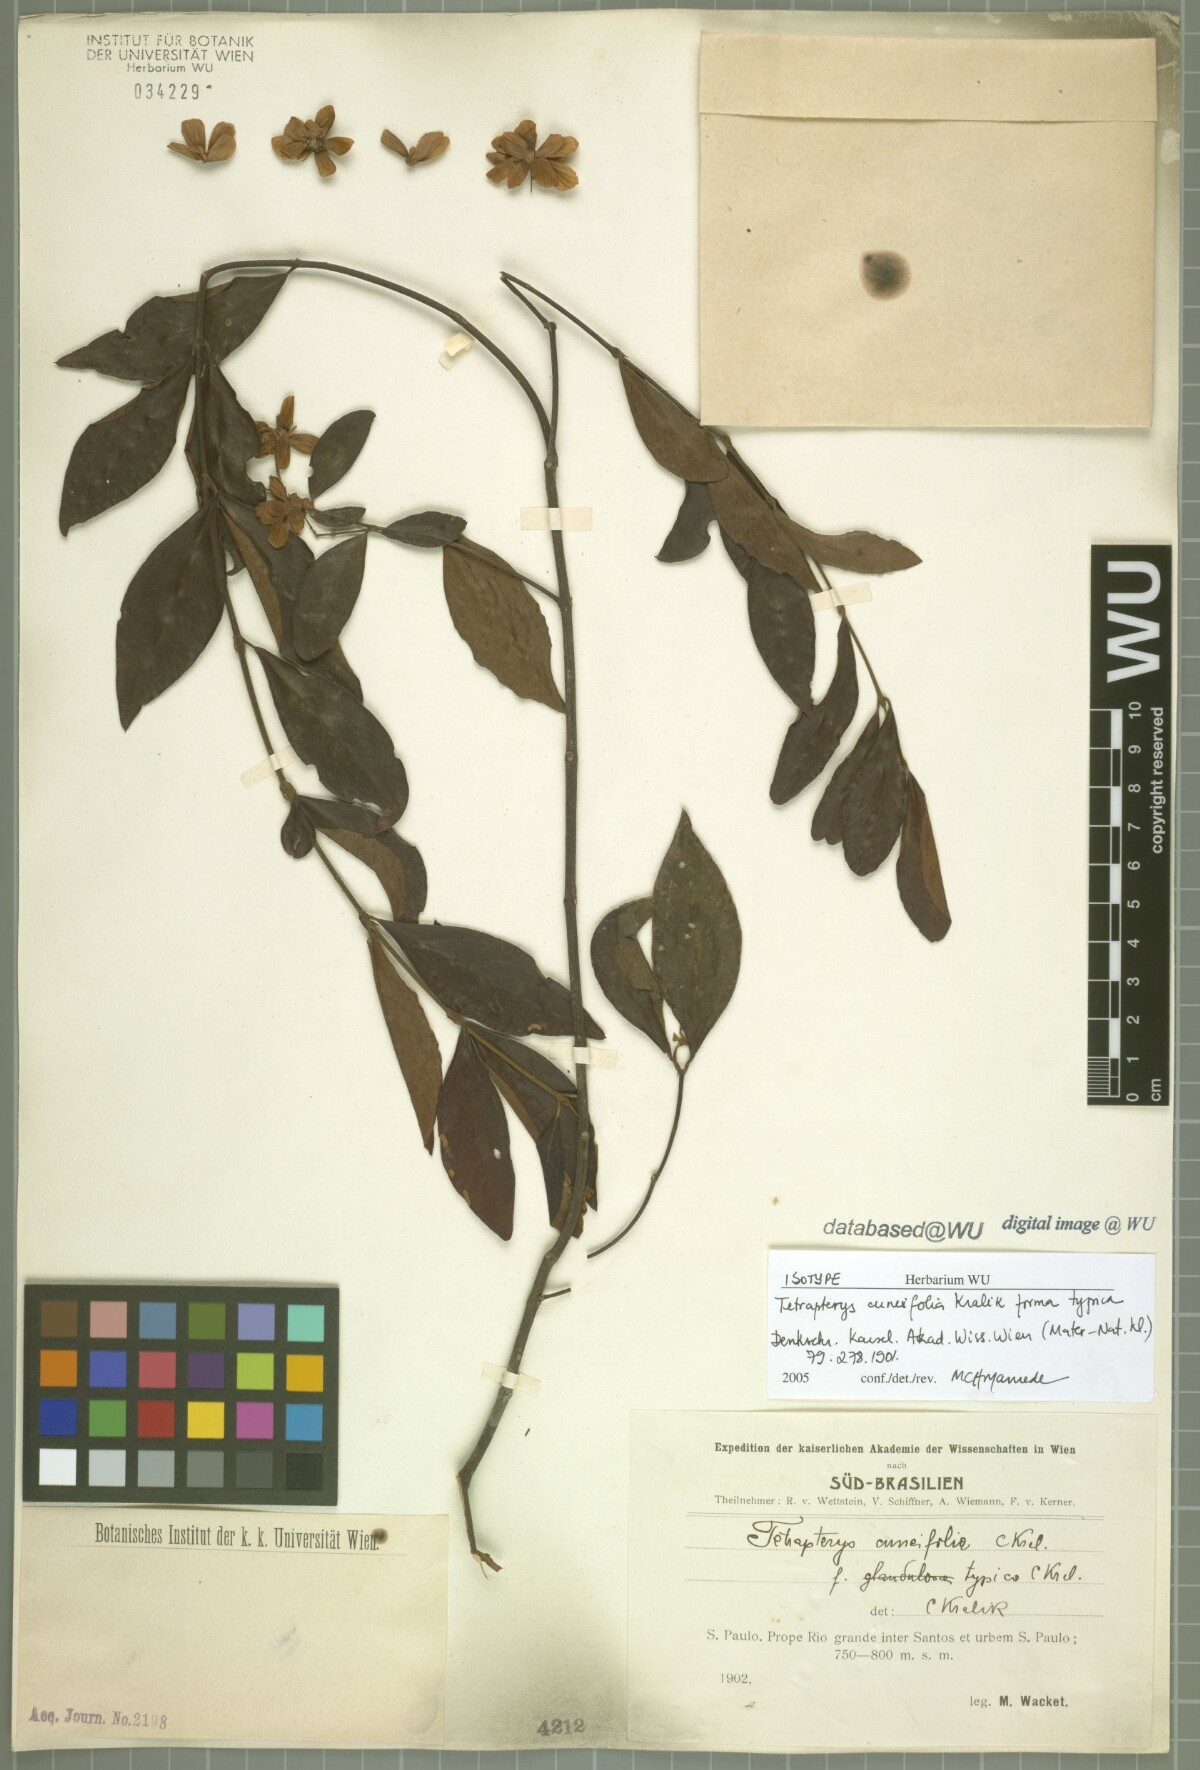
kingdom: Plantae
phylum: Tracheophyta
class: Magnoliopsida
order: Malpighiales
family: Malpighiaceae
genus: Niedenzuella
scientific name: Niedenzuella lucida
